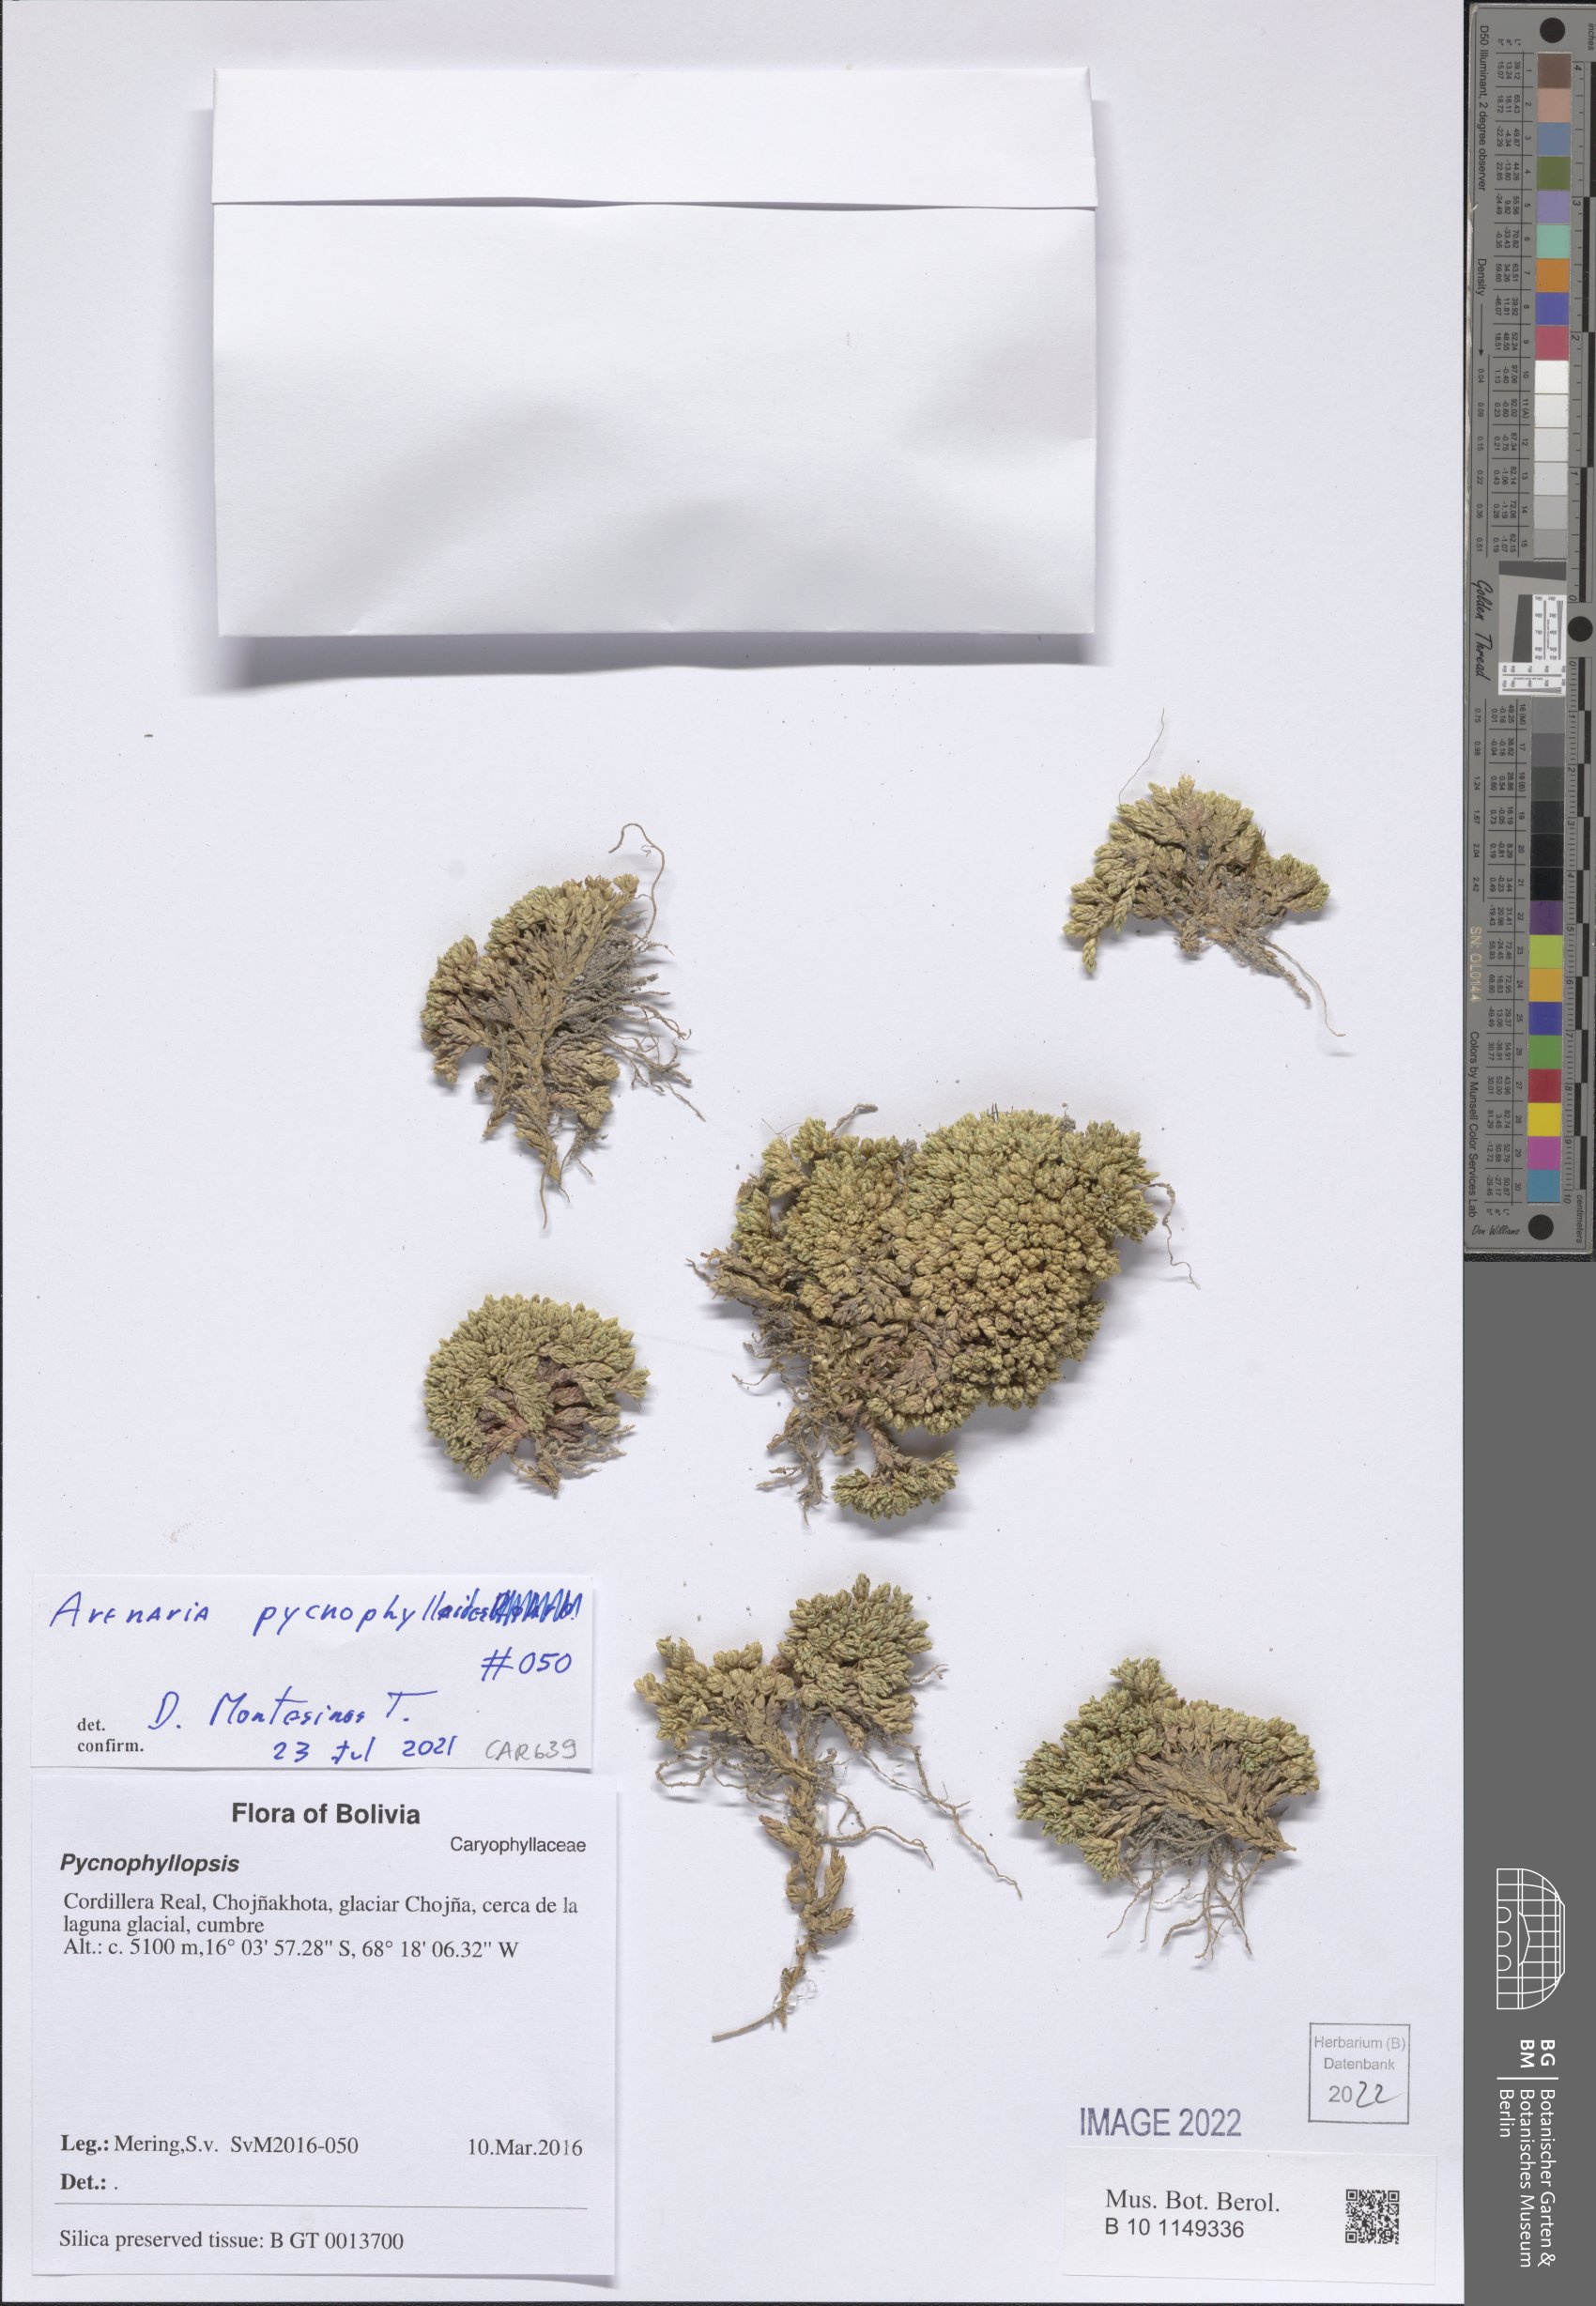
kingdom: Plantae
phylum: Tracheophyta
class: Magnoliopsida
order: Caryophyllales
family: Caryophyllaceae
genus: Arenaria
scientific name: Arenaria pycnophylloides
